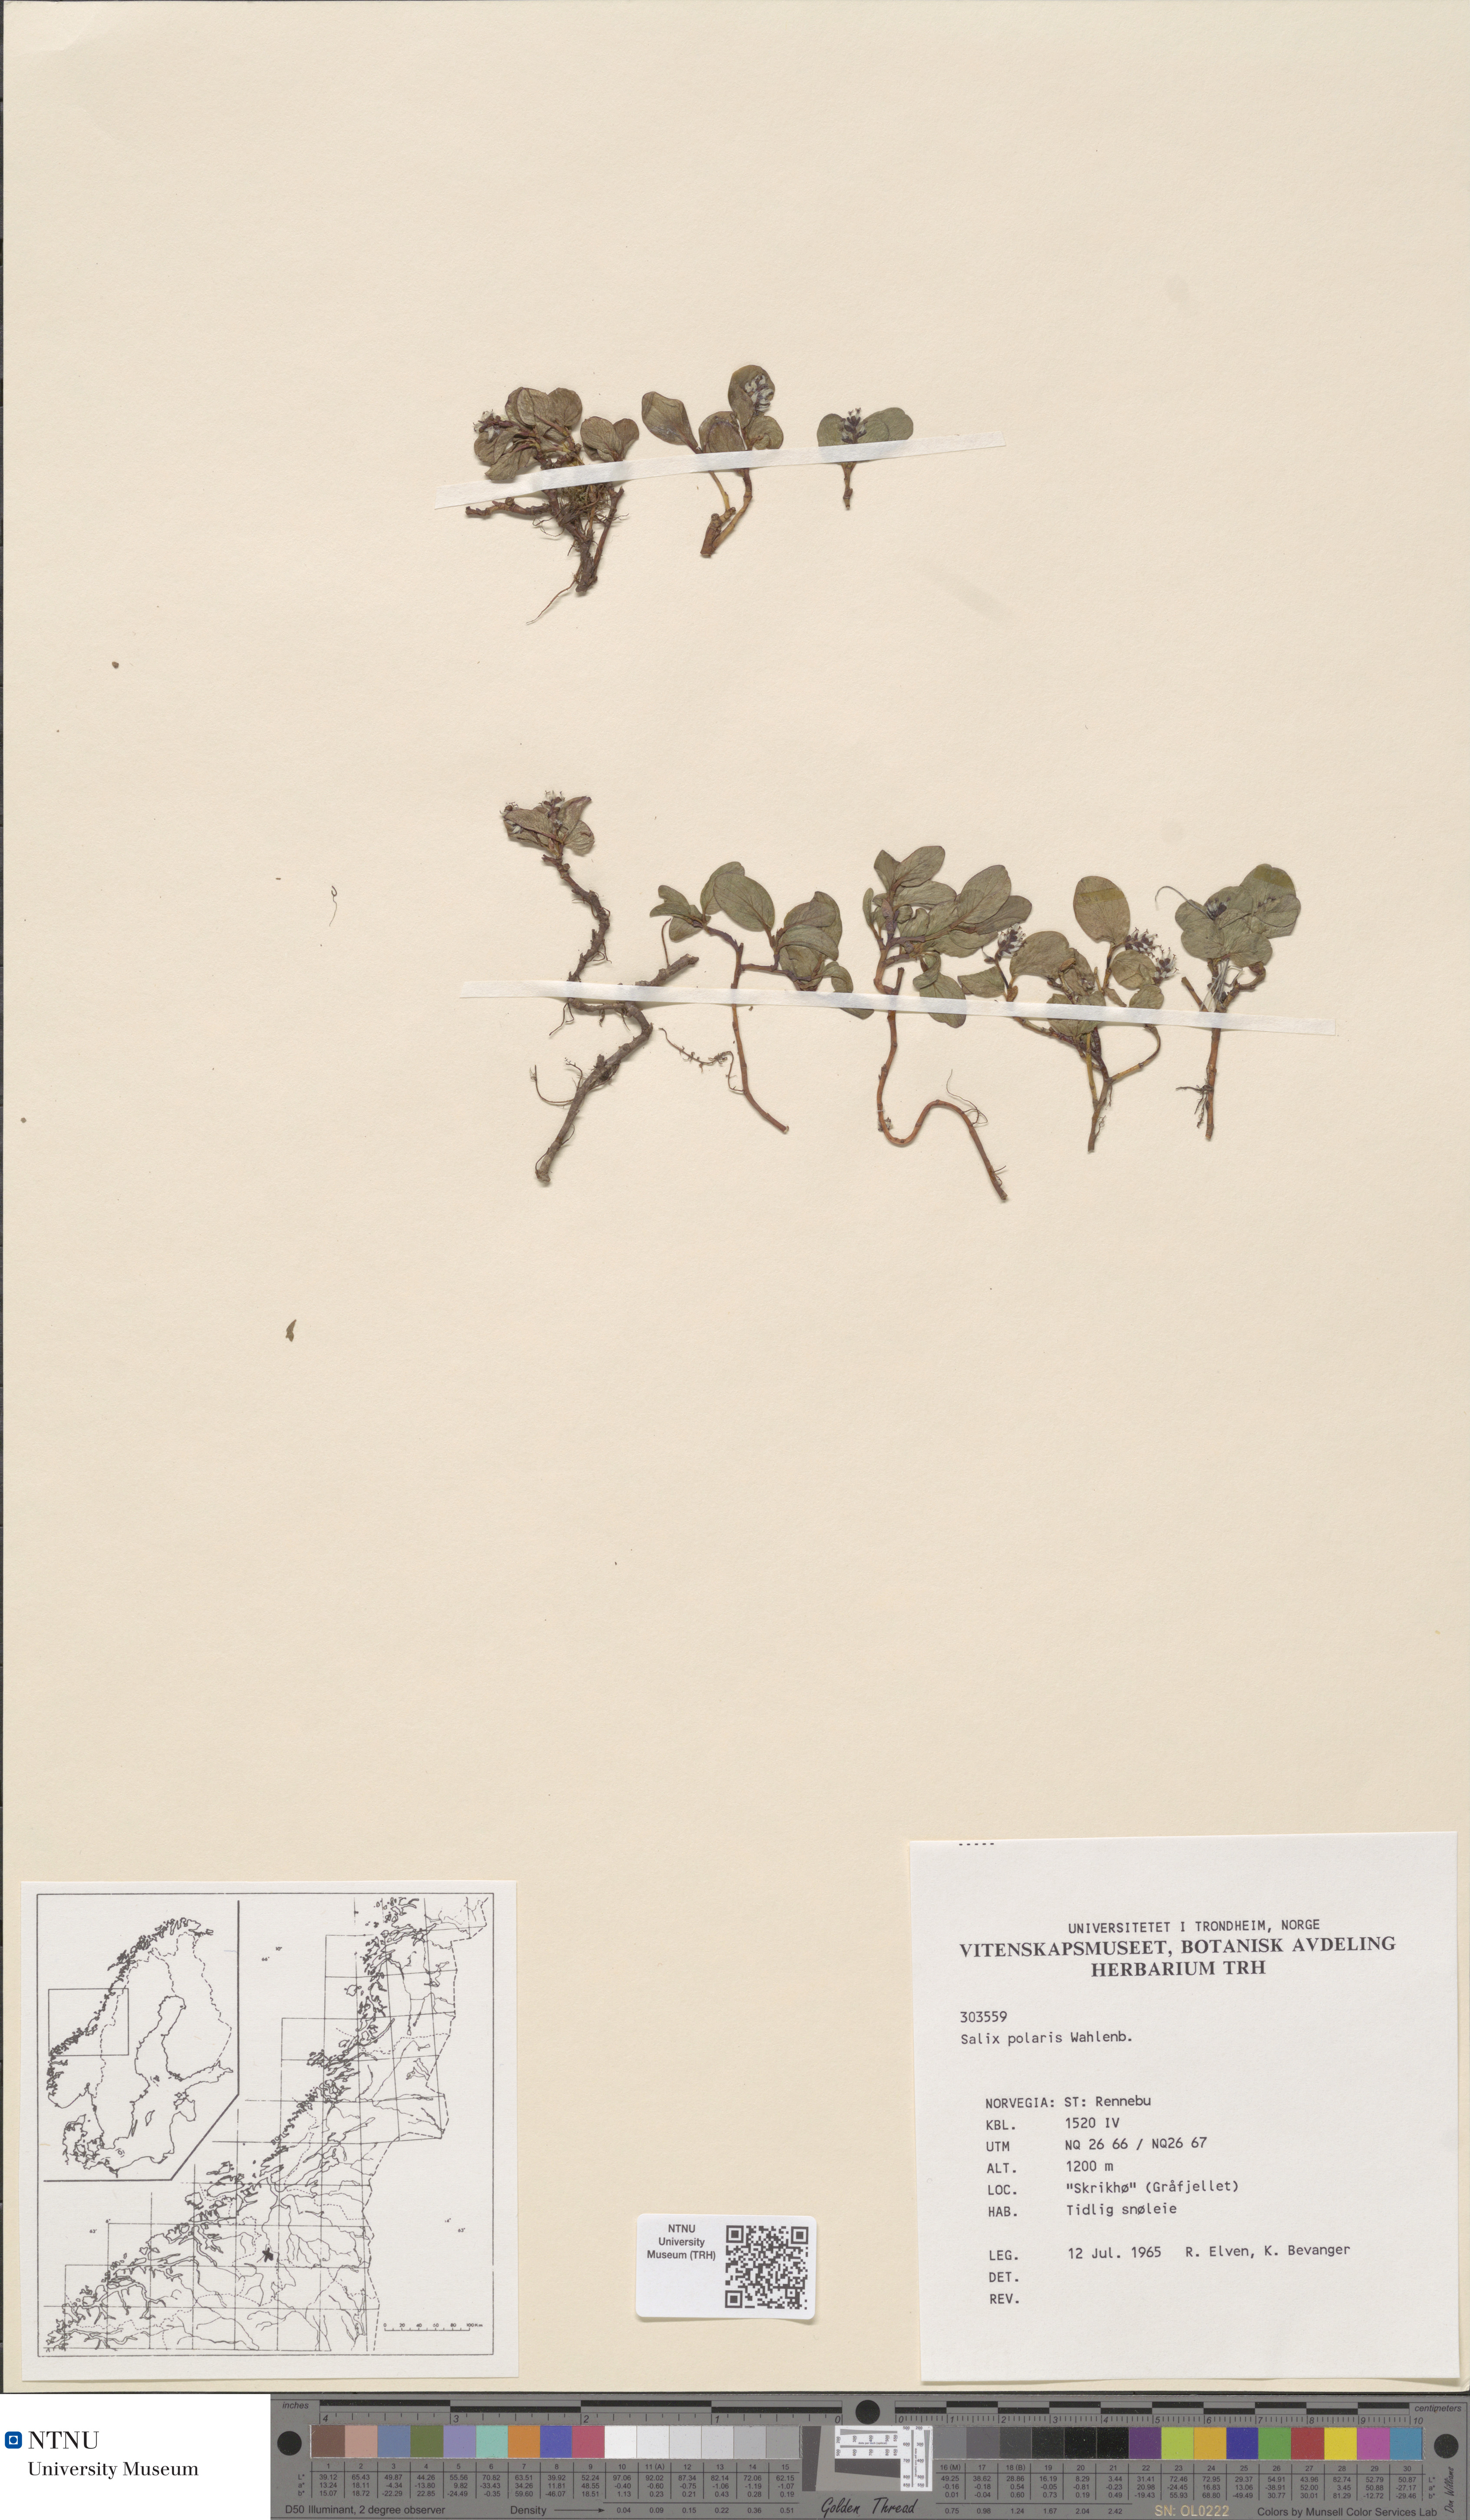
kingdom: Plantae
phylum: Tracheophyta
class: Magnoliopsida
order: Malpighiales
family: Salicaceae
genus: Salix
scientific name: Salix polaris
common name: Polar willow
